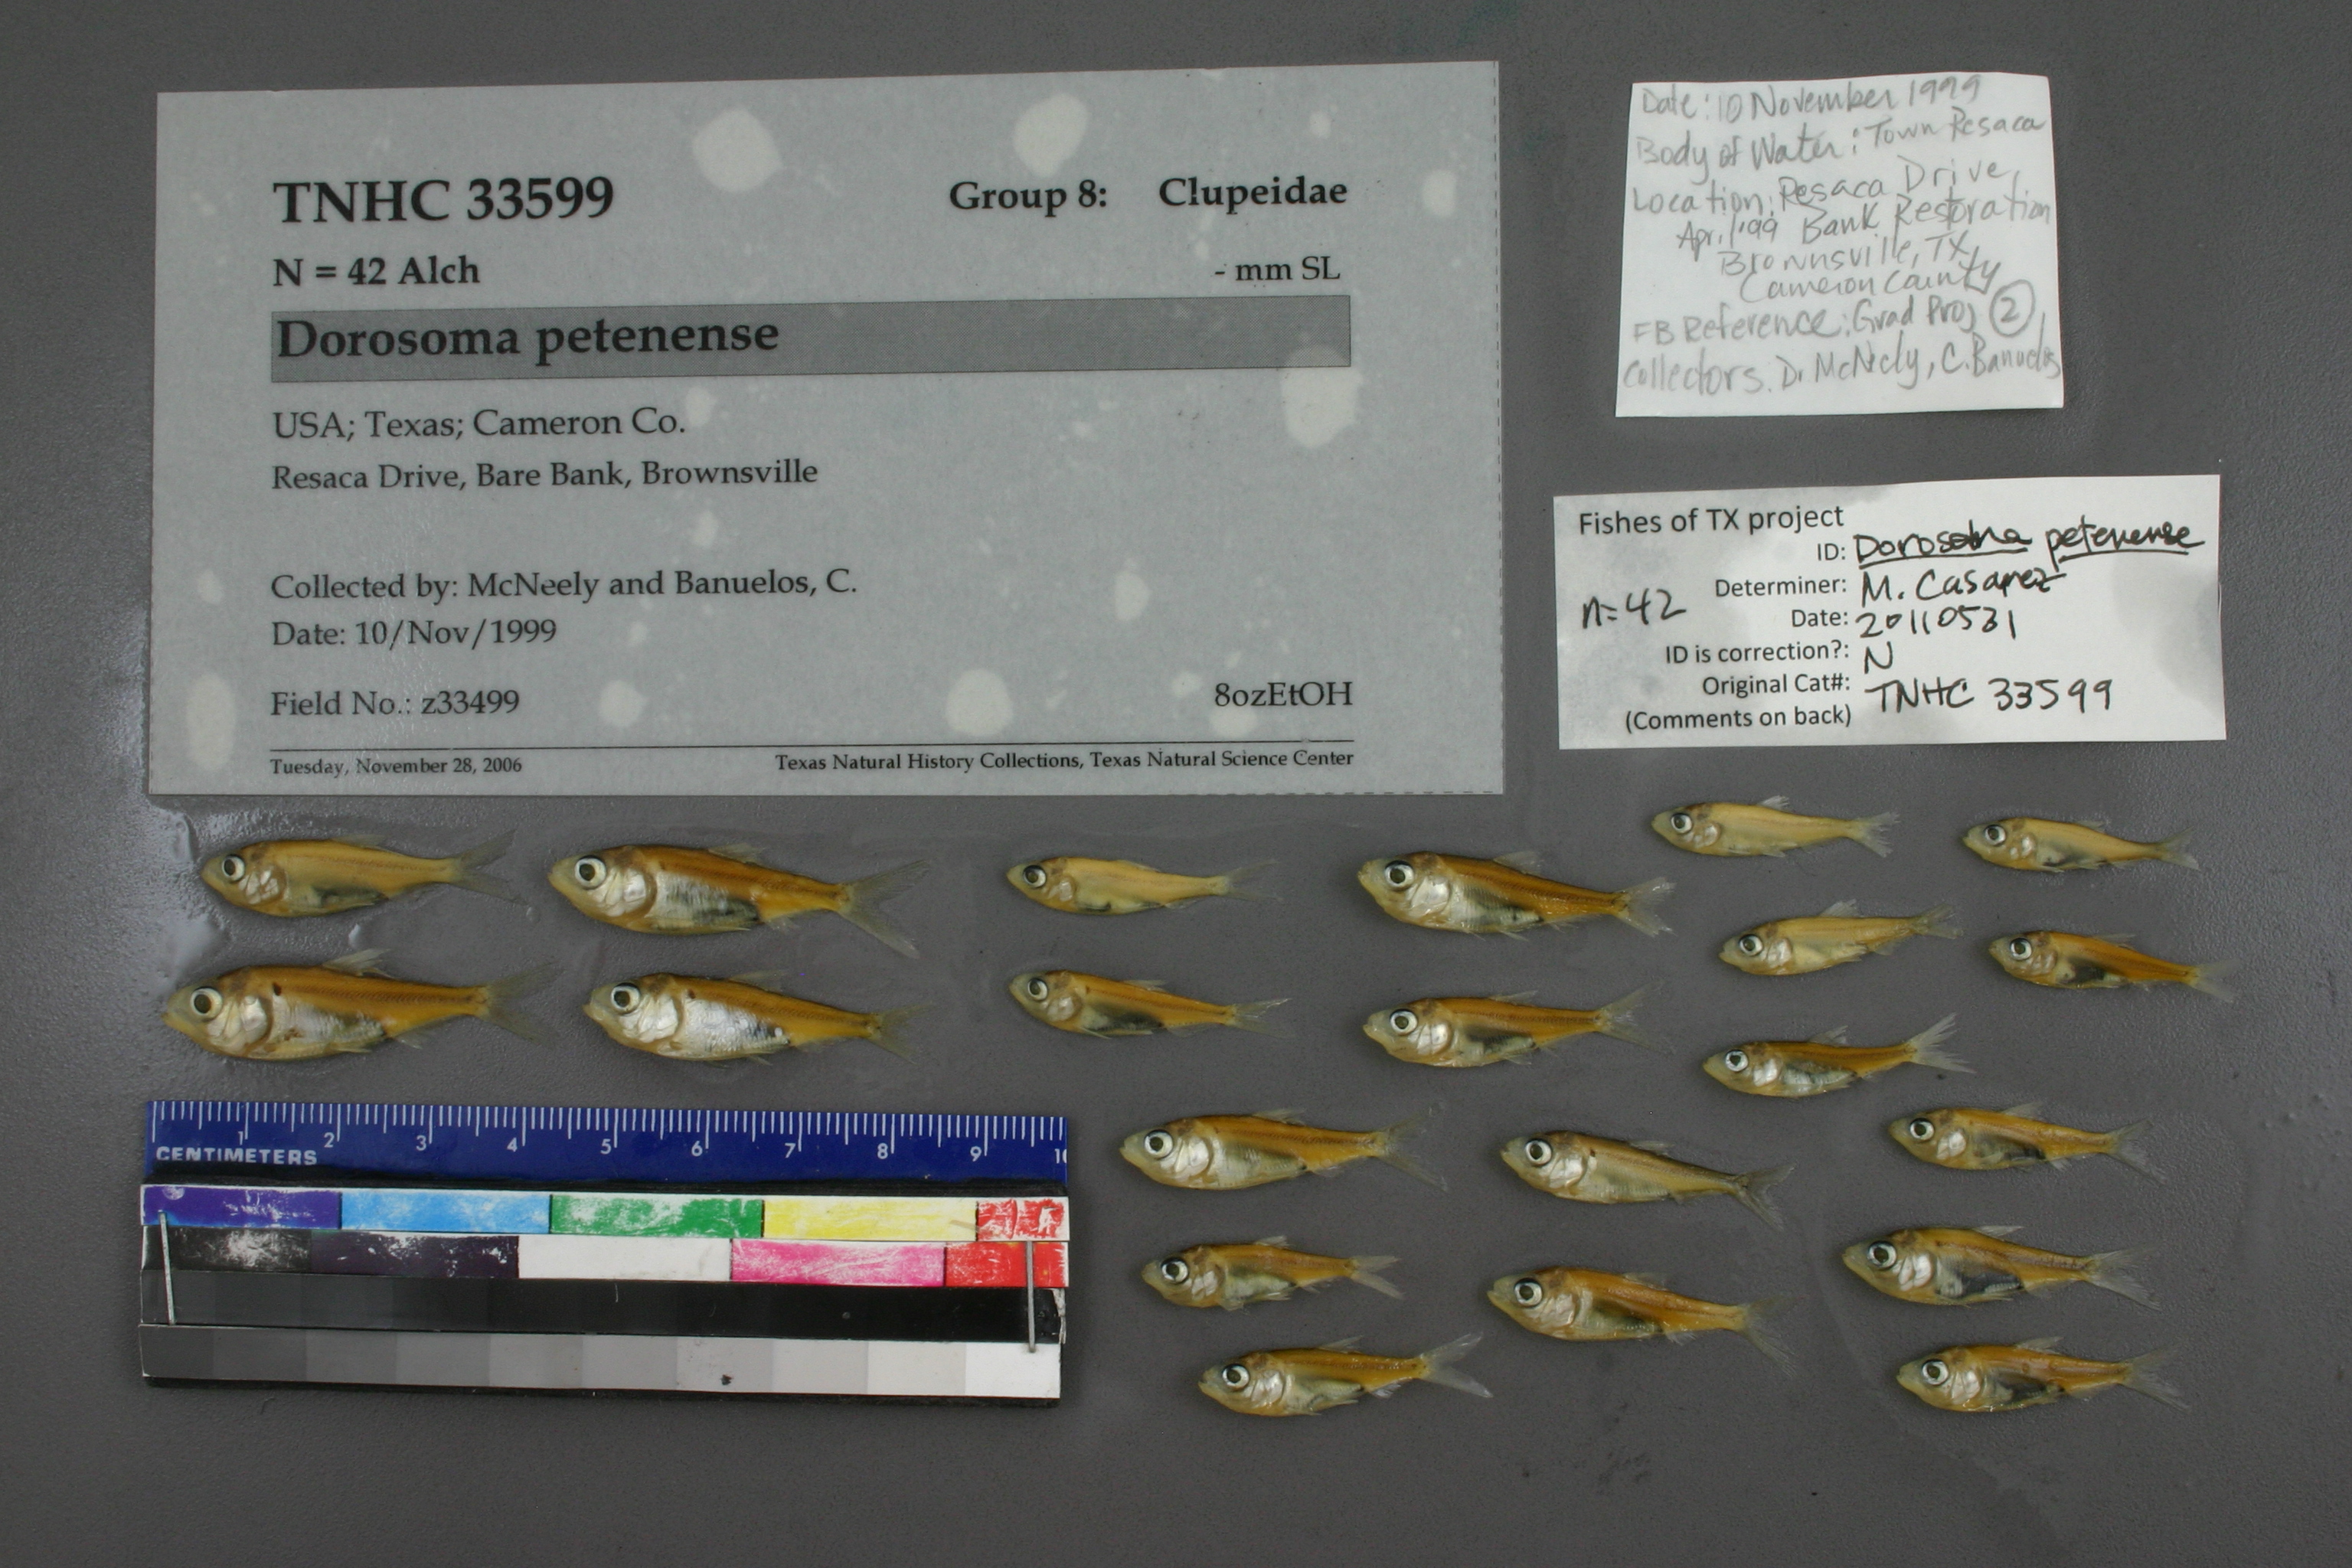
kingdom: Animalia
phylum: Chordata
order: Clupeiformes
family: Clupeidae
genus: Dorosoma
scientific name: Dorosoma petenense
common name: Threadfin shad
